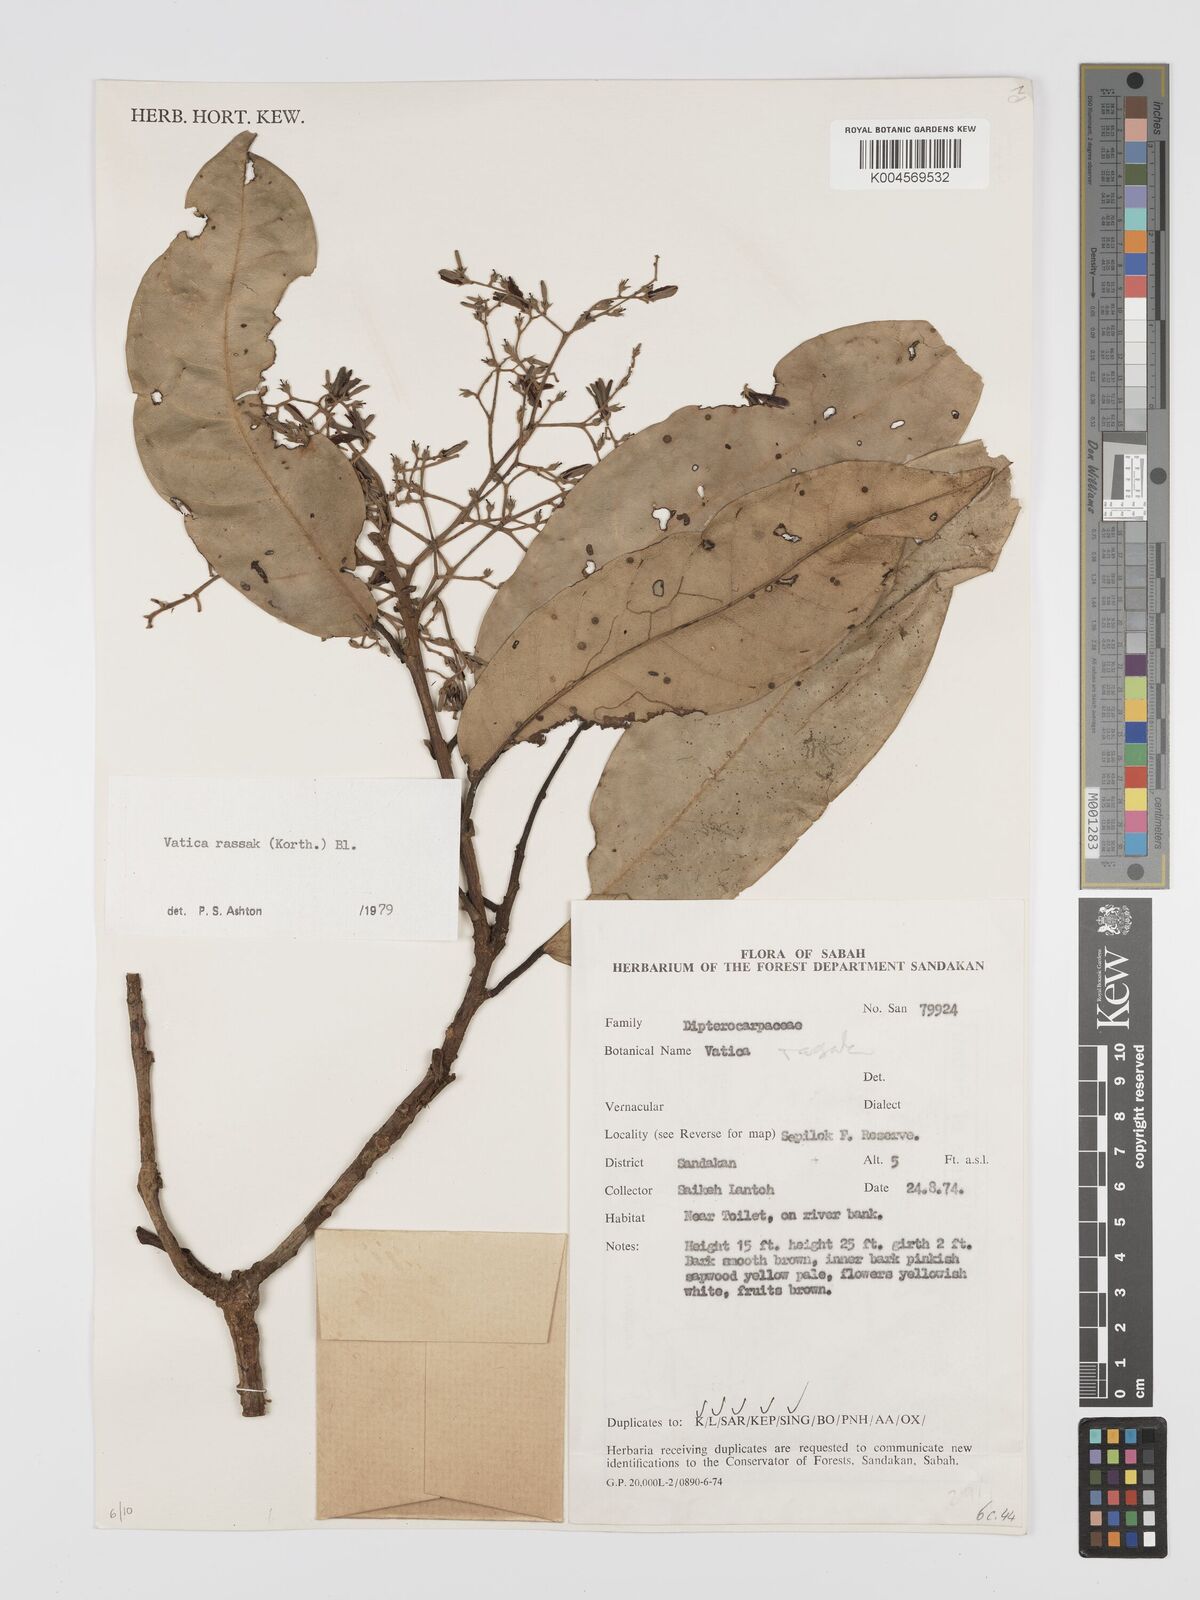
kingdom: Plantae
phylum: Tracheophyta
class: Magnoliopsida
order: Malvales
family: Dipterocarpaceae
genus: Vatica
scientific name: Vatica rassak
